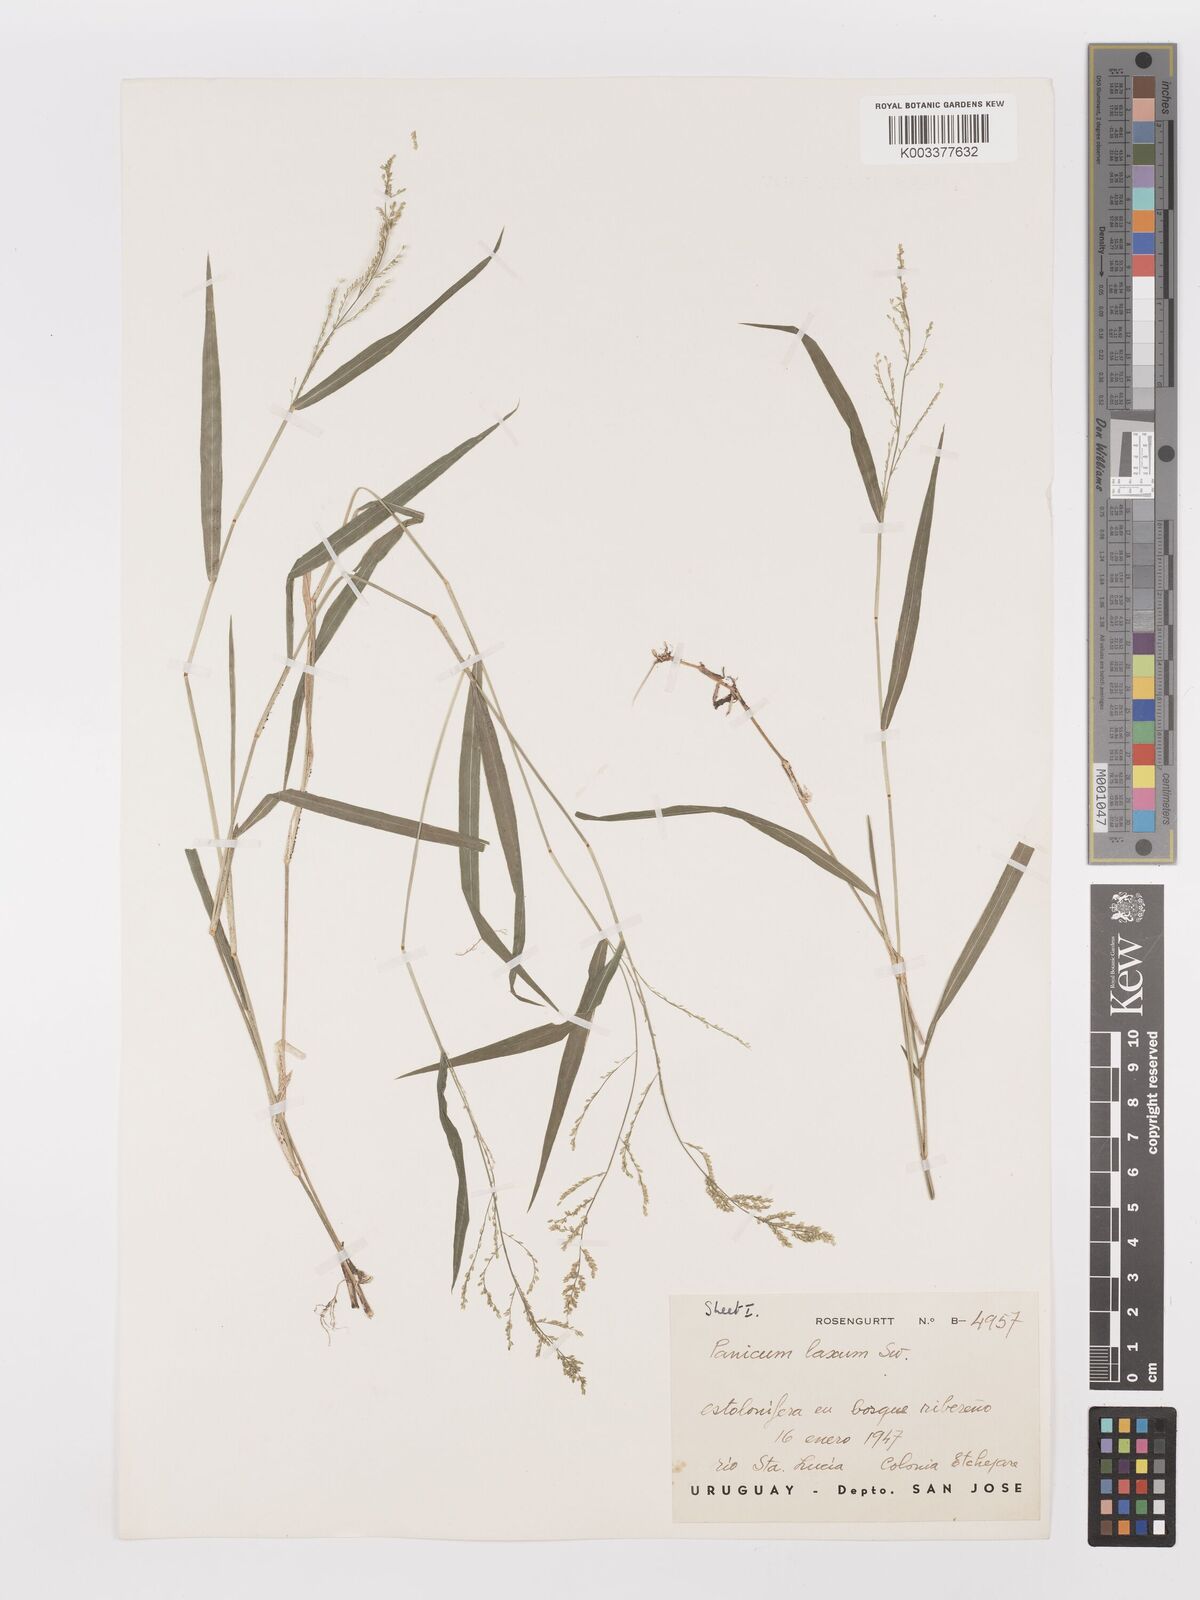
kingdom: Plantae
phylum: Tracheophyta
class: Liliopsida
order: Poales
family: Poaceae
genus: Steinchisma
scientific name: Steinchisma laxum
